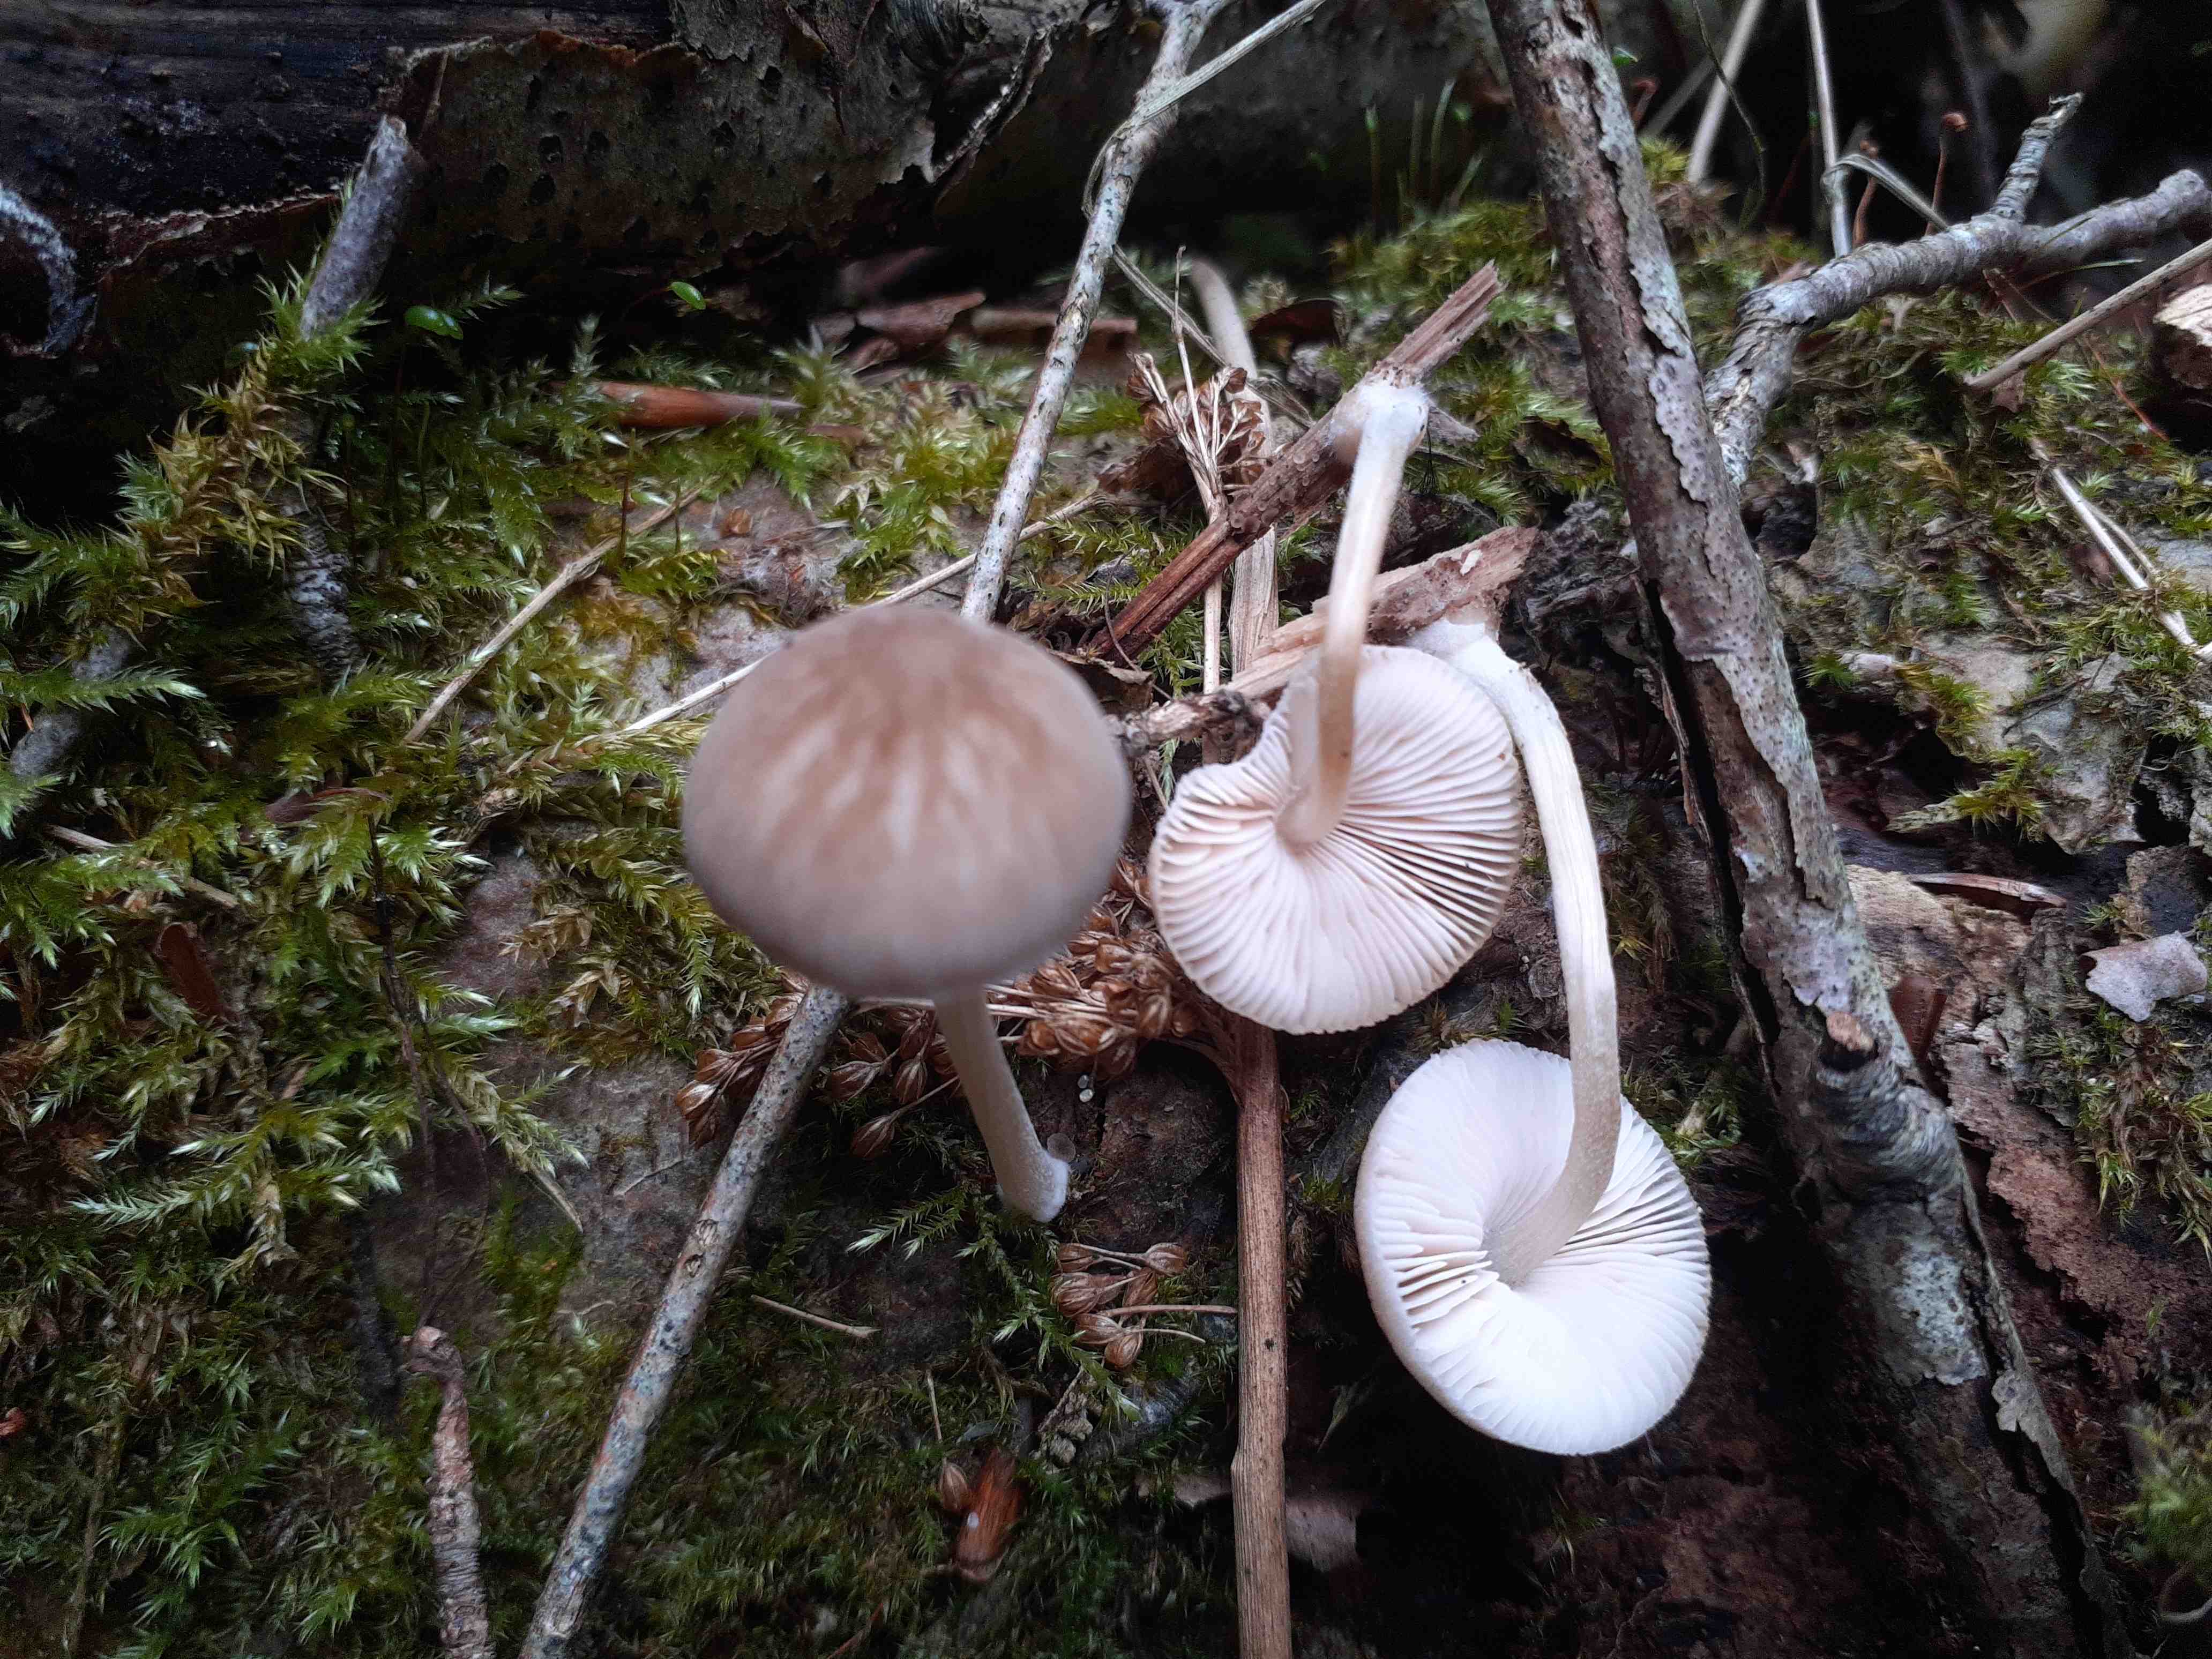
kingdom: Fungi
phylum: Basidiomycota
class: Agaricomycetes
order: Agaricales
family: Pluteaceae
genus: Pluteus
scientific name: Pluteus semibulbosus
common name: knoldet skærmhat
